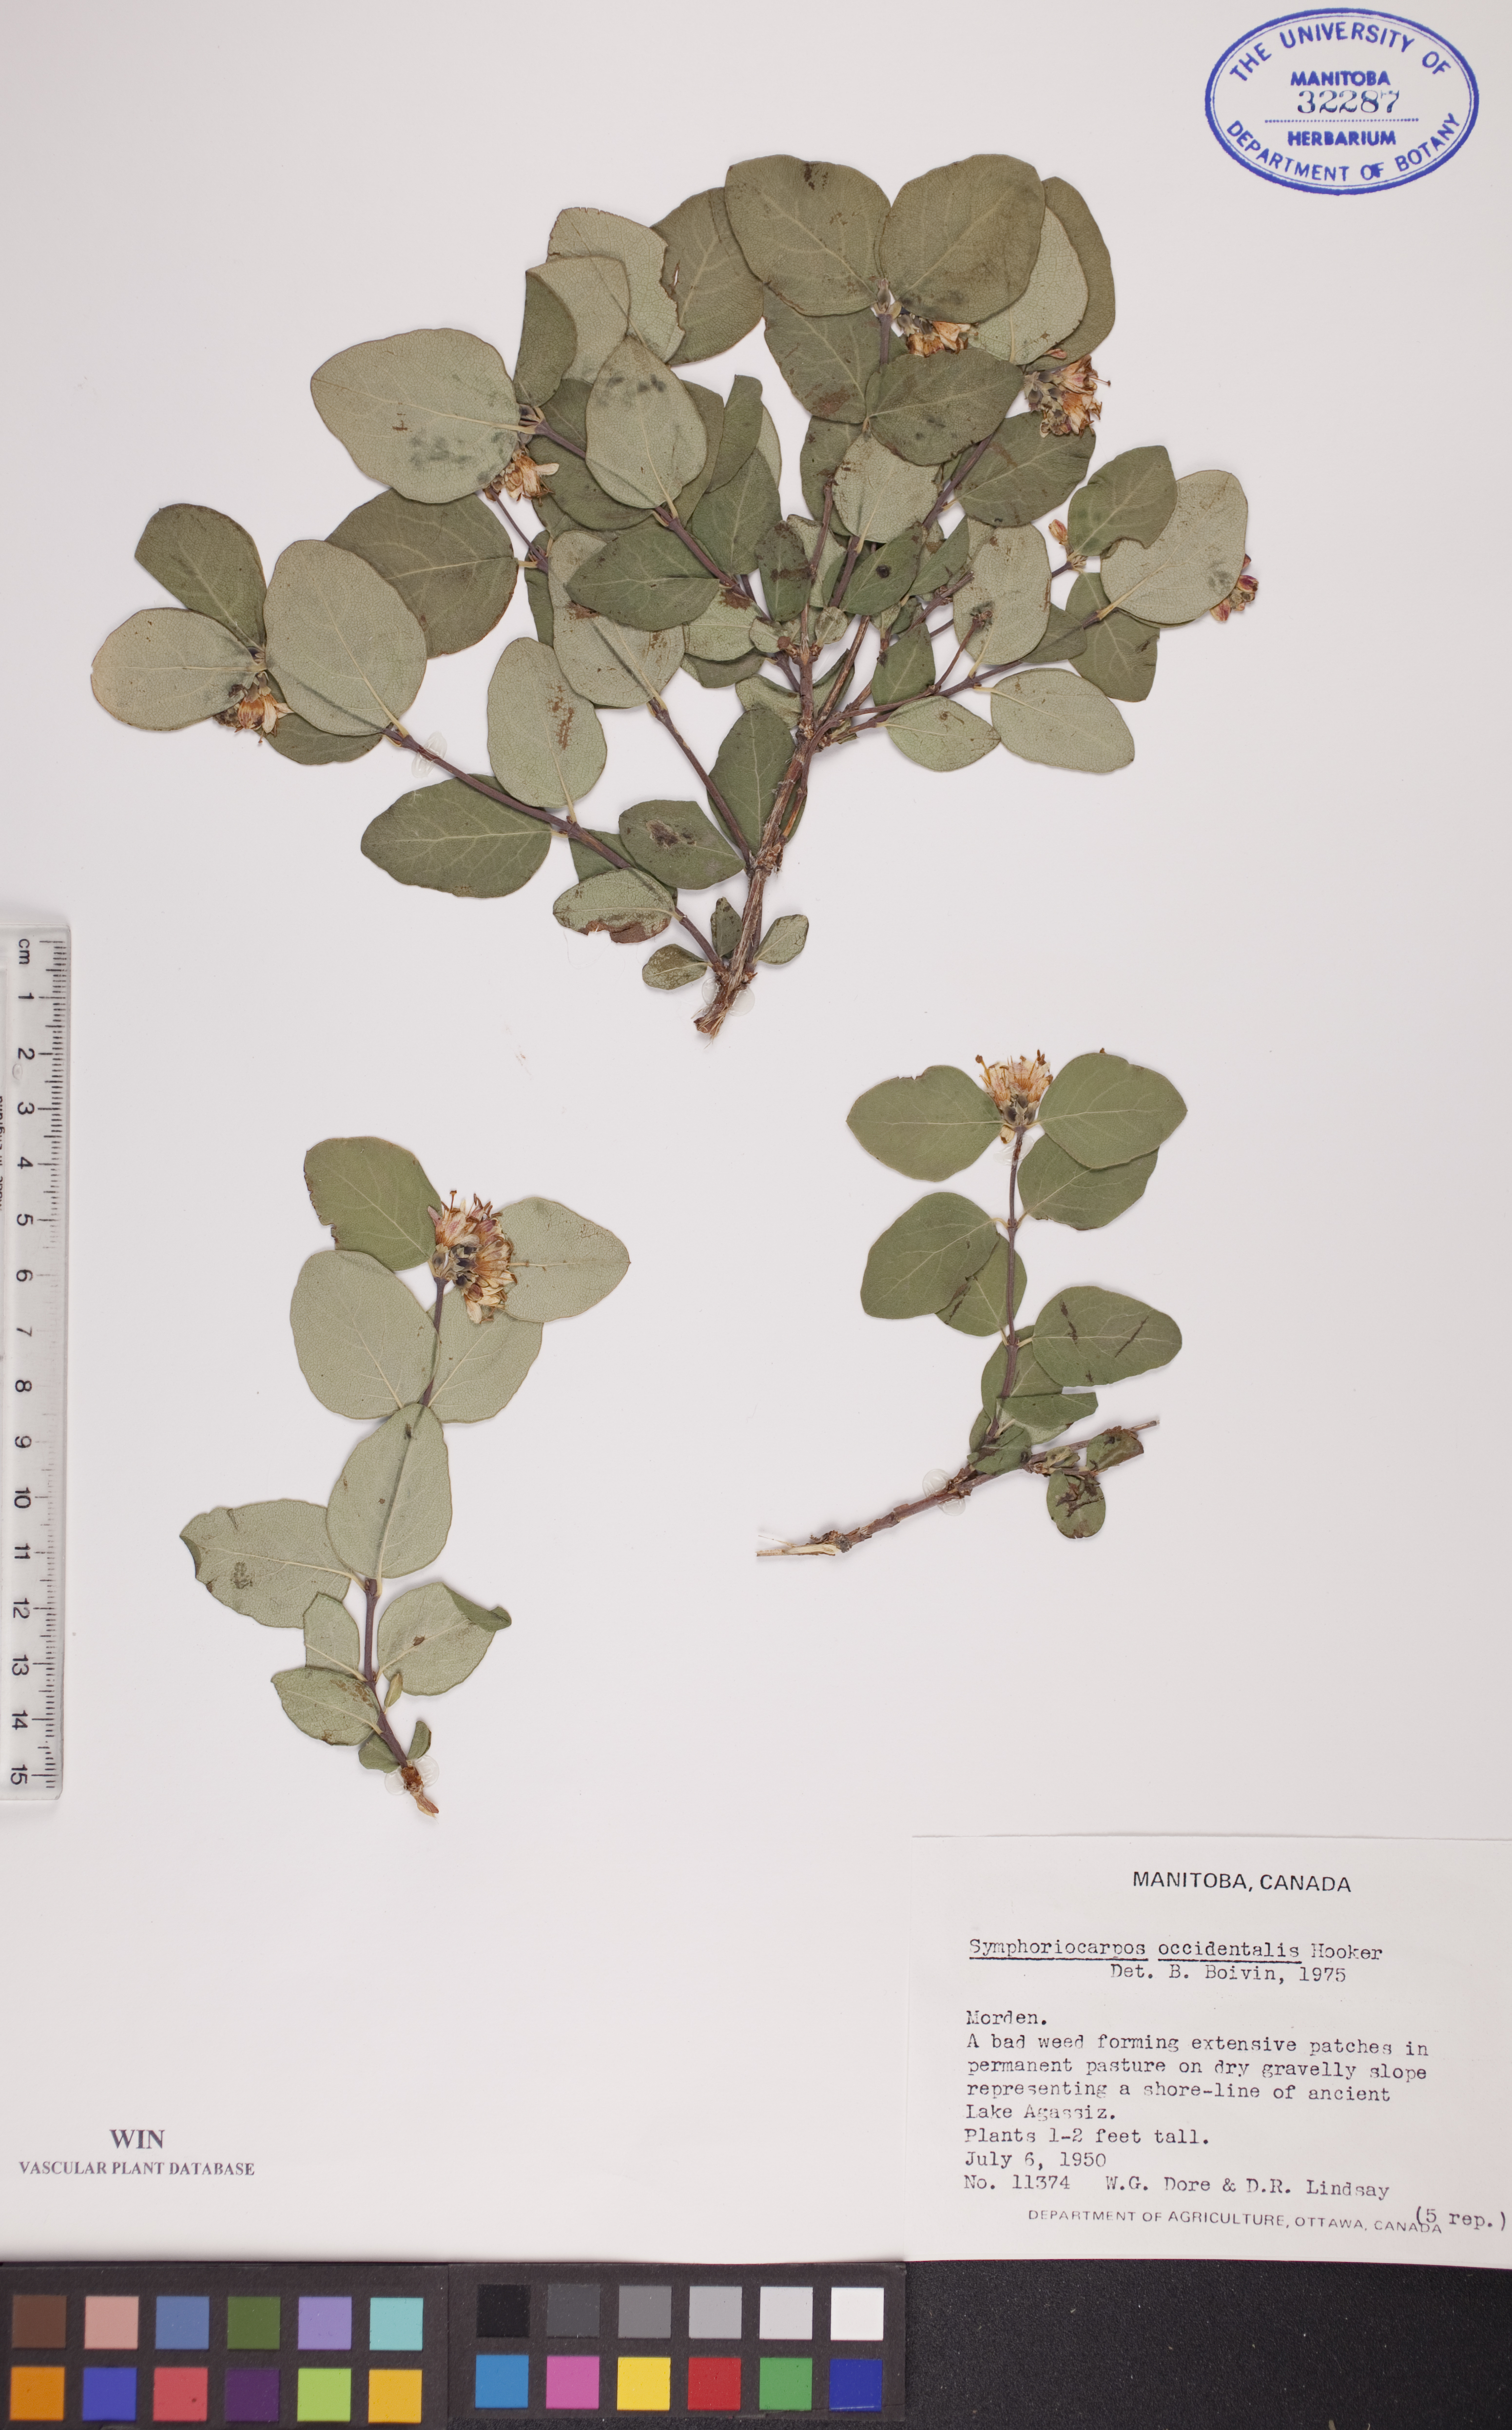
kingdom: Plantae
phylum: Tracheophyta
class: Magnoliopsida
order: Dipsacales
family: Caprifoliaceae
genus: Symphoricarpos
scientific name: Symphoricarpos occidentalis
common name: Wolfberry
